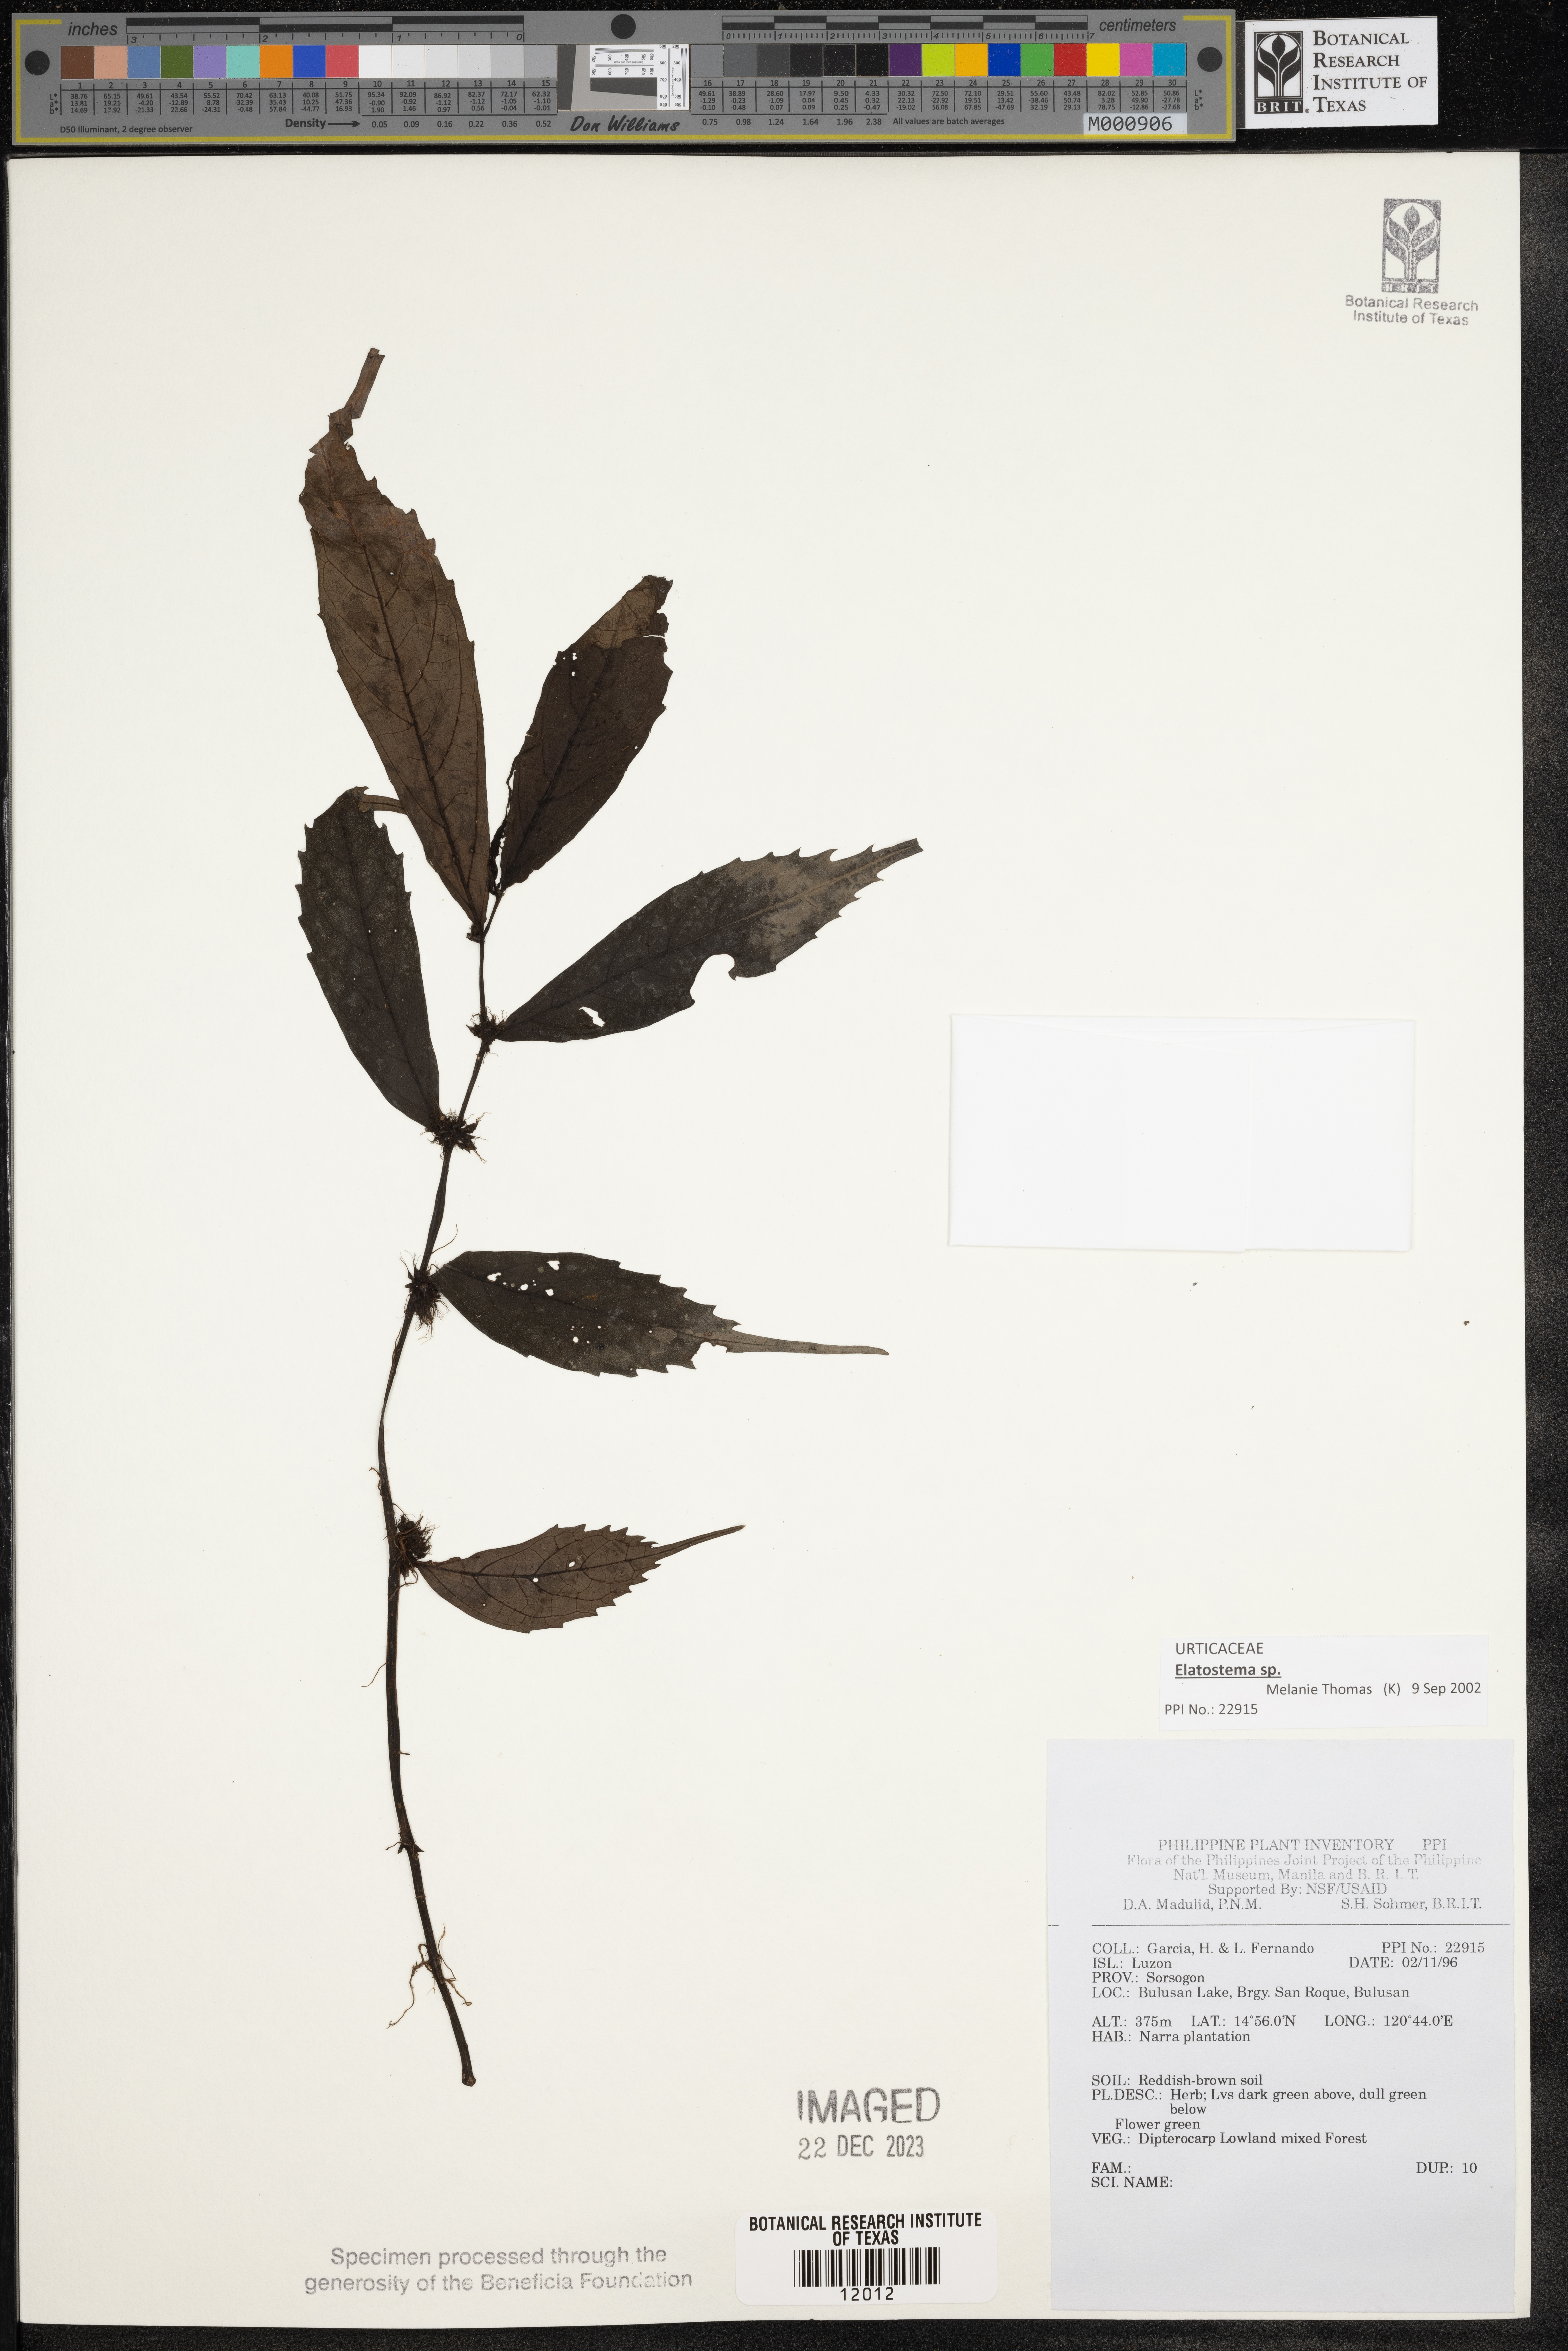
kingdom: Plantae
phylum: Tracheophyta
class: Magnoliopsida
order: Rosales
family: Urticaceae
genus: Elatostema
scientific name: Elatostema
